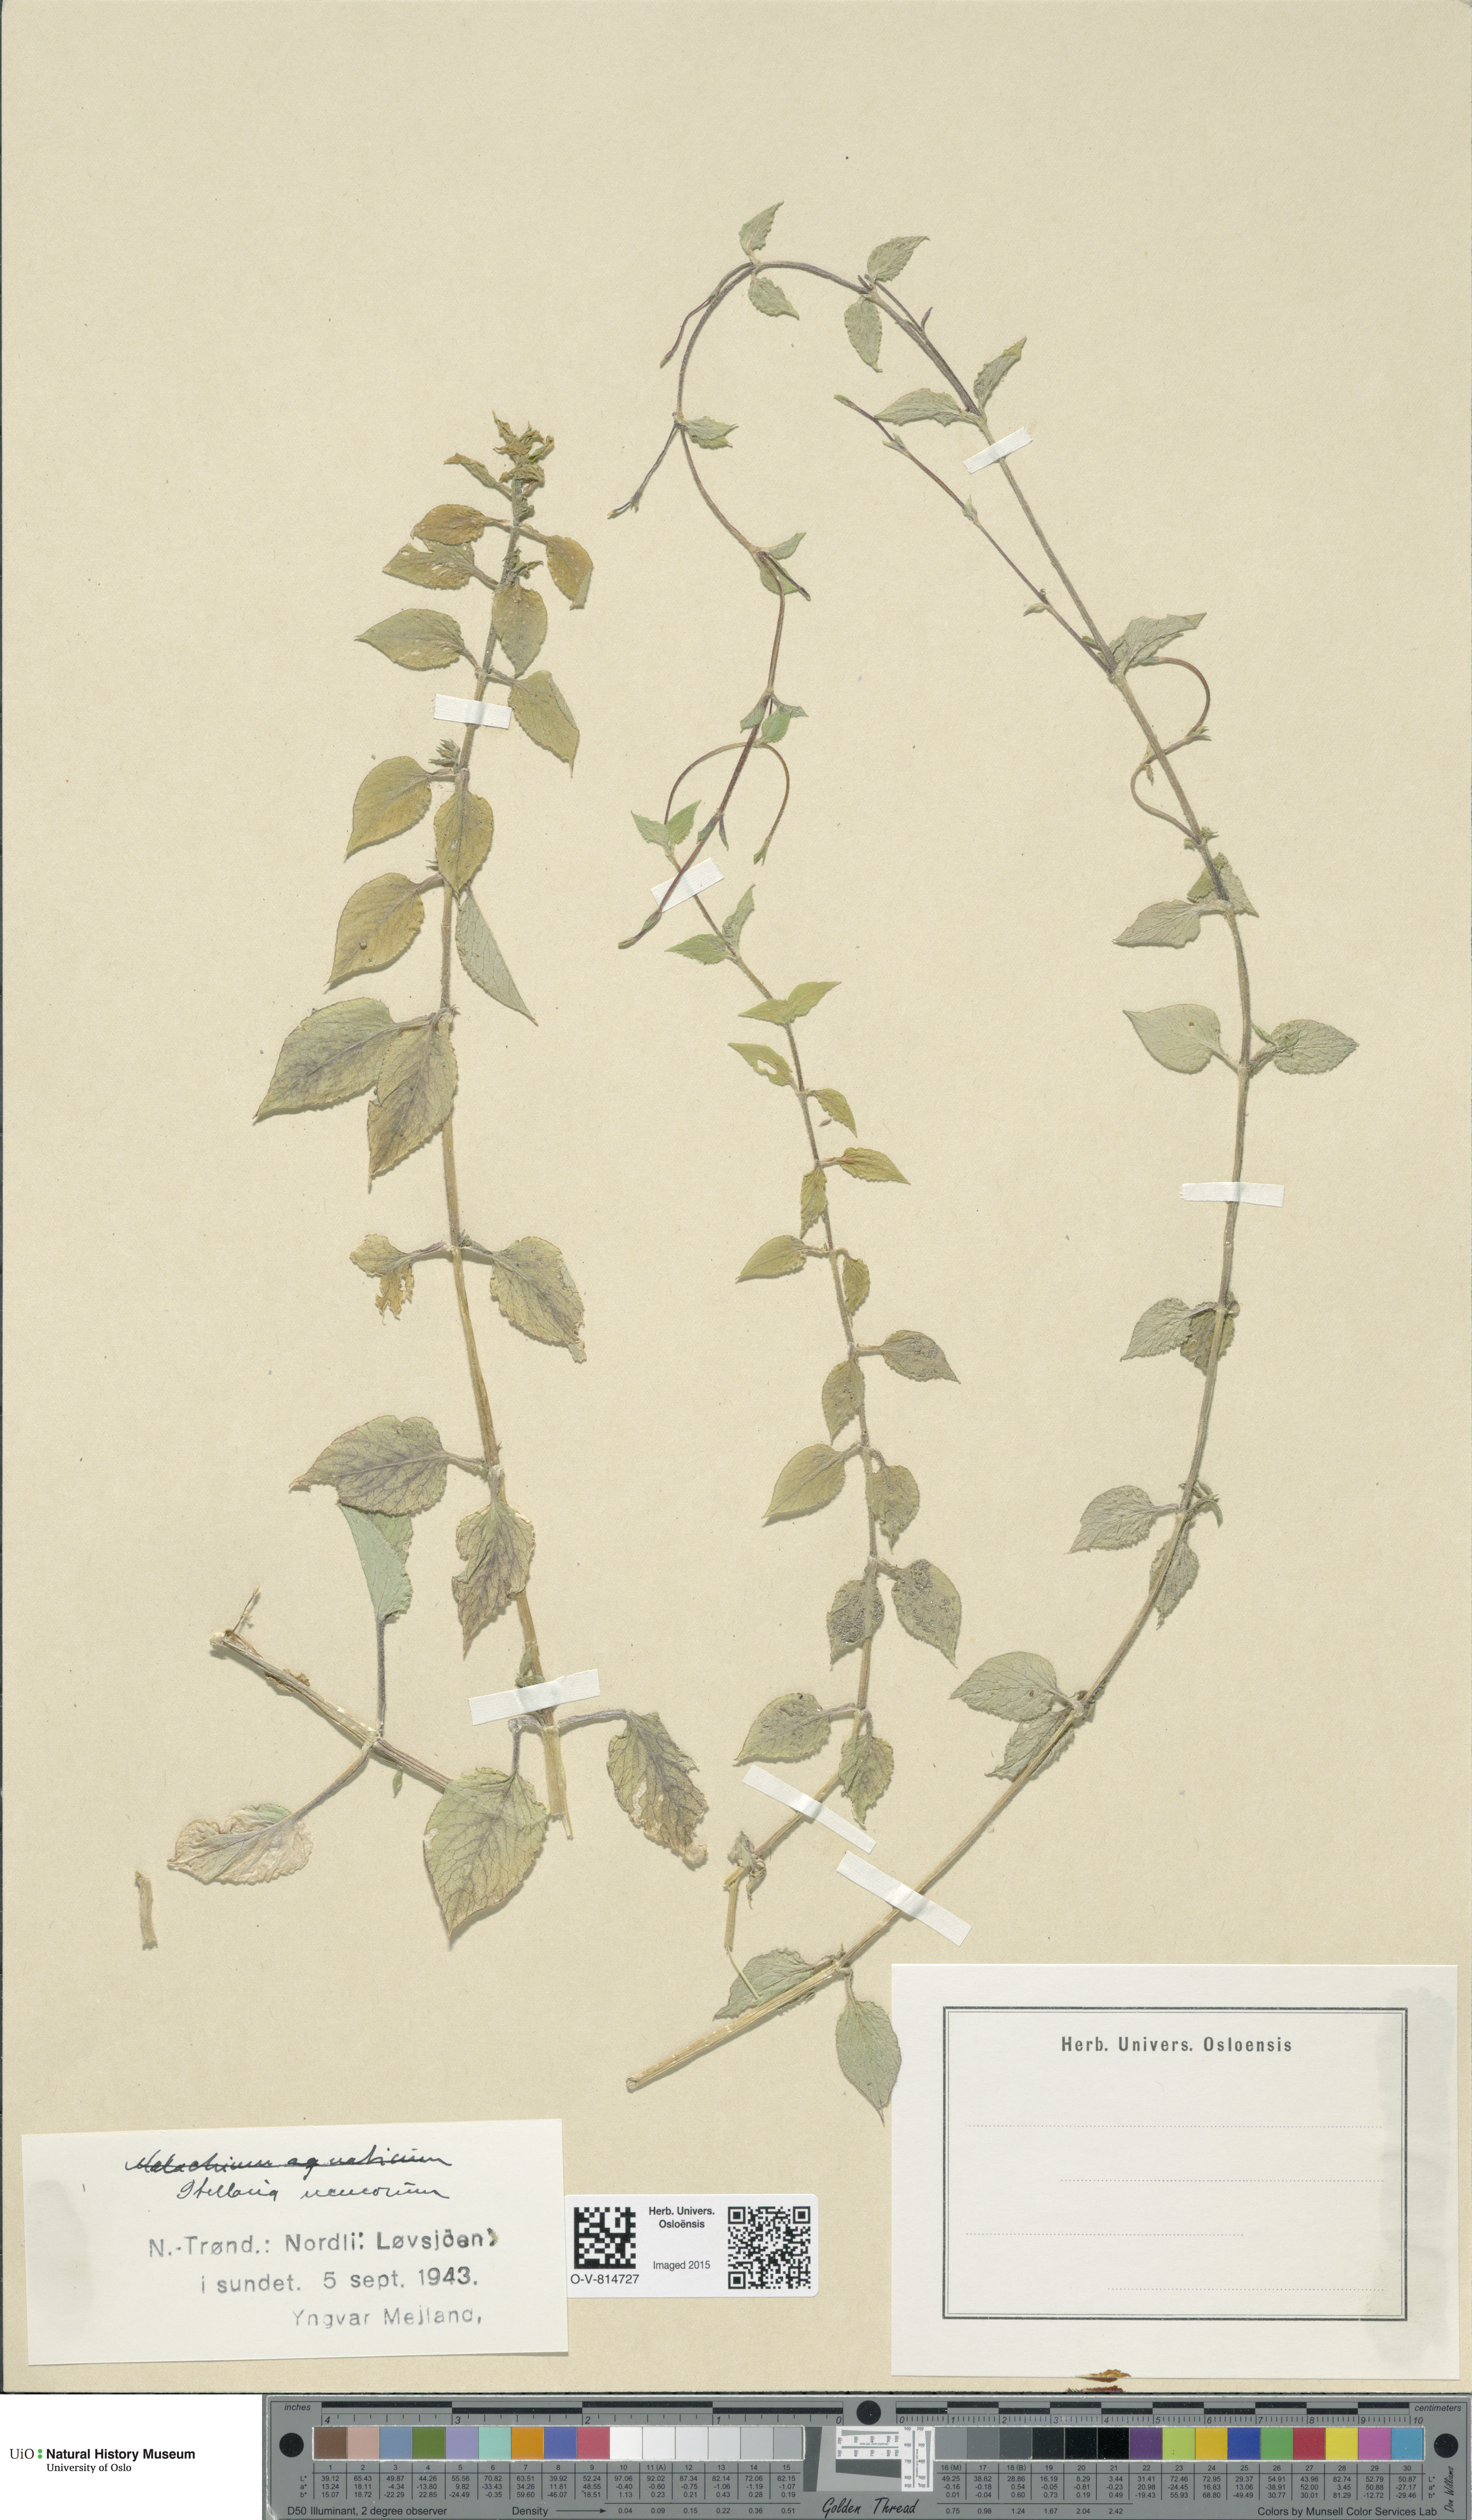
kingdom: Plantae
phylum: Tracheophyta
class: Magnoliopsida
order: Caryophyllales
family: Caryophyllaceae
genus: Stellaria
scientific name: Stellaria nemorum
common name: Wood stitchwort
